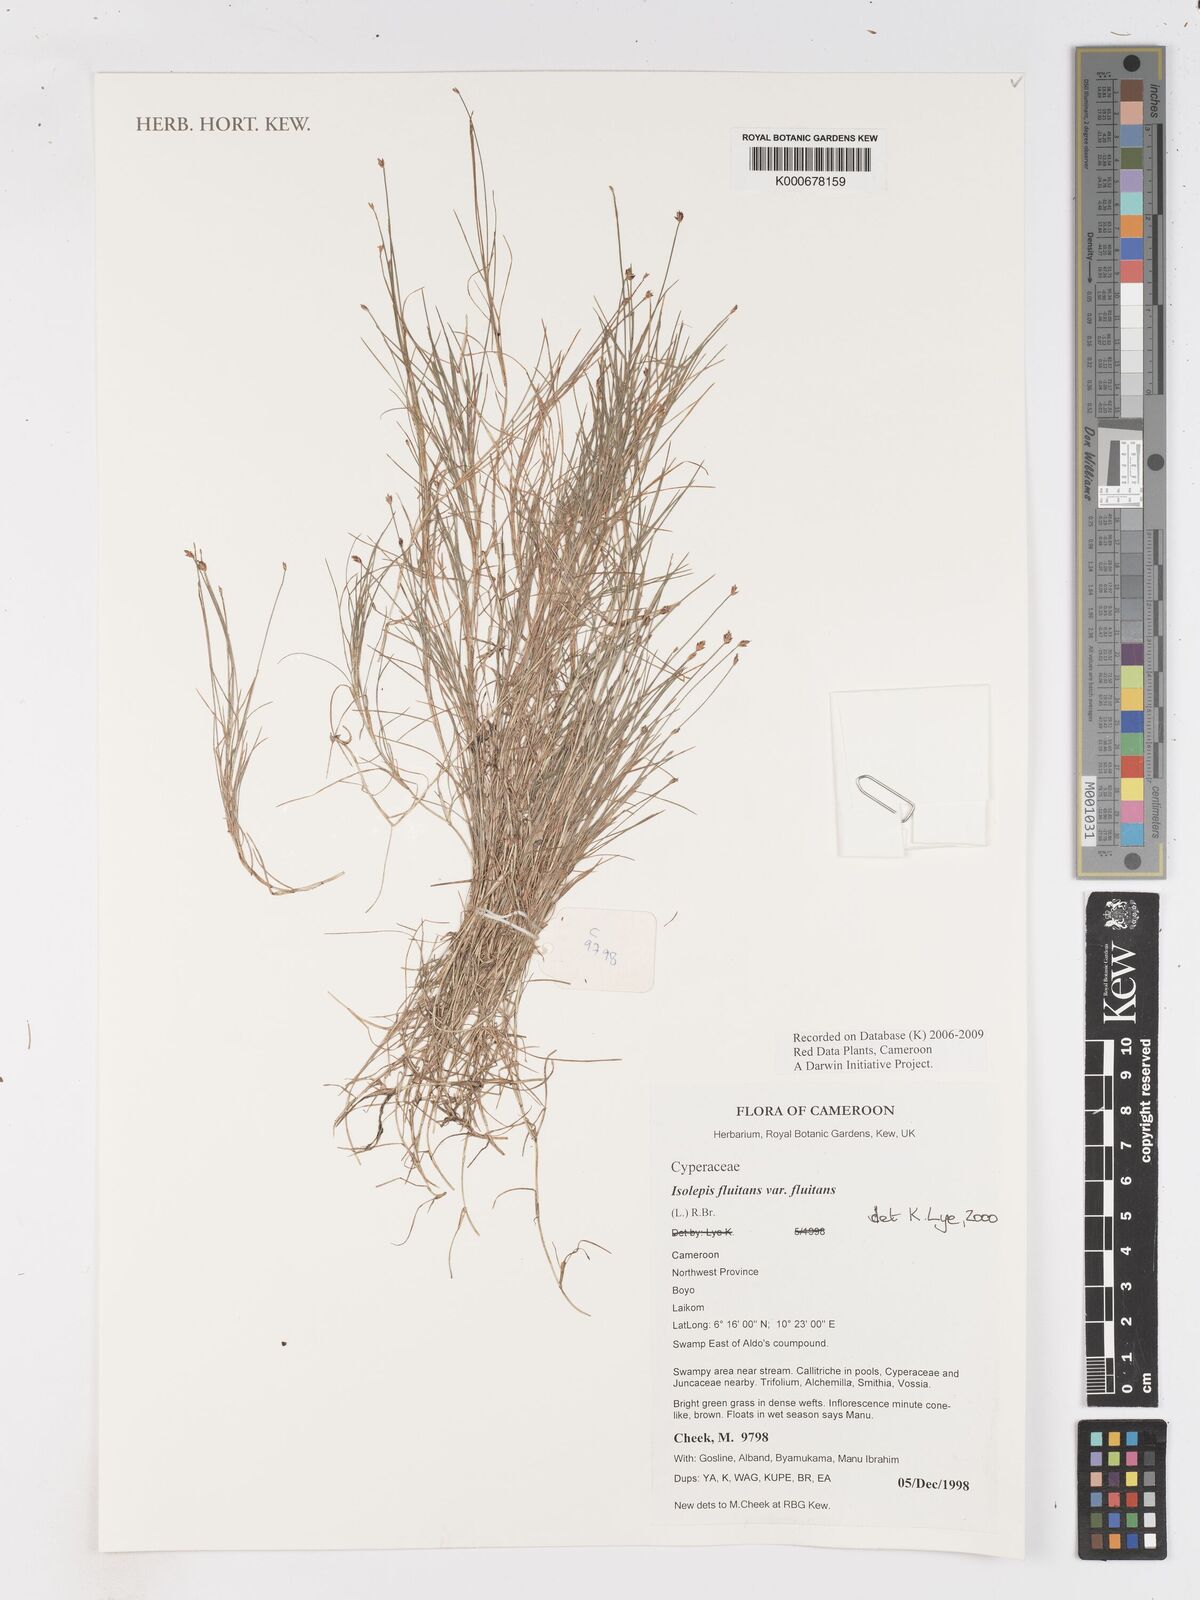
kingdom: Plantae
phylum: Tracheophyta
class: Liliopsida
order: Poales
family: Cyperaceae
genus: Isolepis
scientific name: Isolepis fluitans
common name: Floating club-rush
